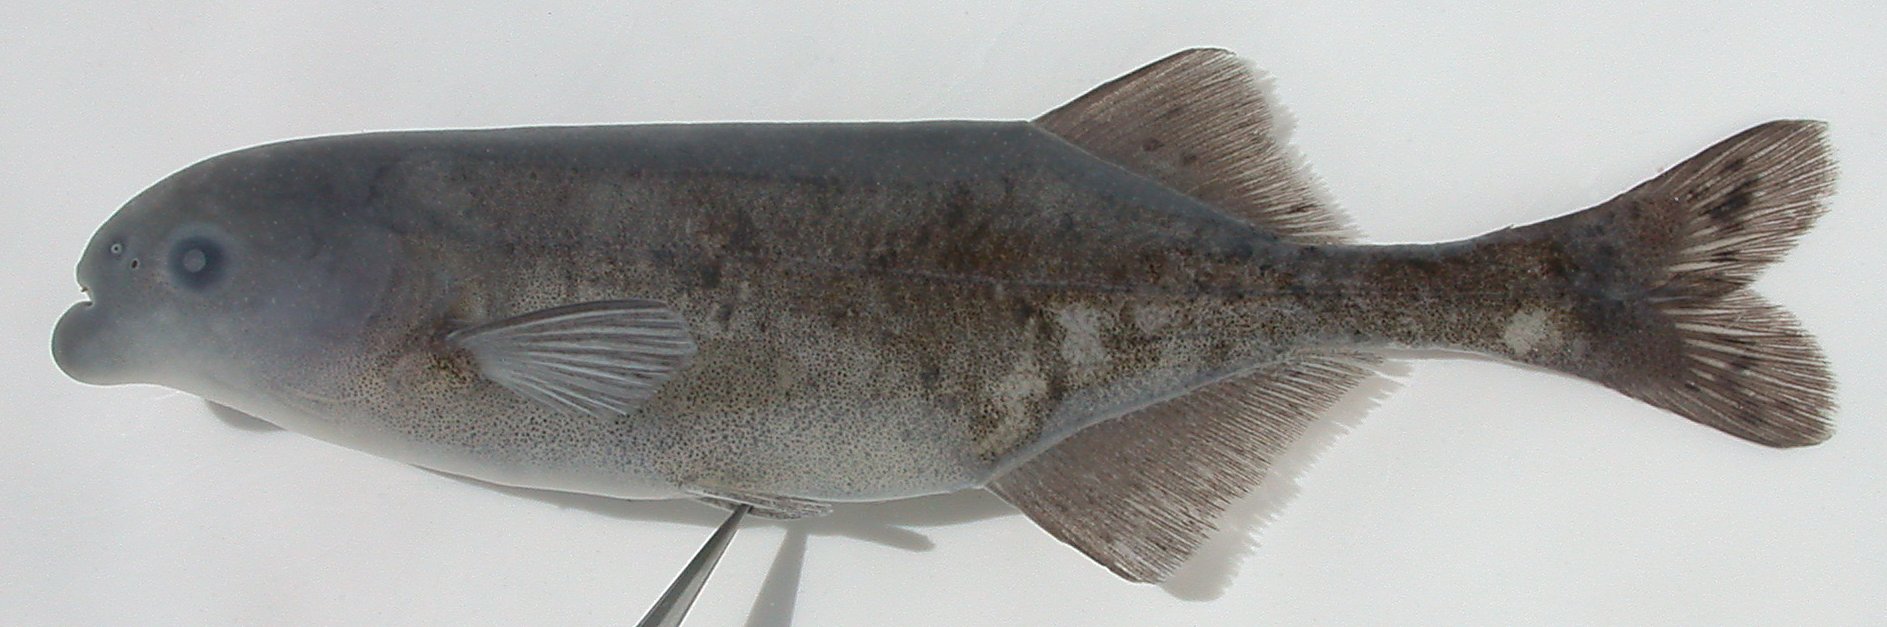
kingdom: Animalia
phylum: Chordata
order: Osteoglossiformes
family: Mormyridae
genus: Marcusenius
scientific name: Marcusenius
